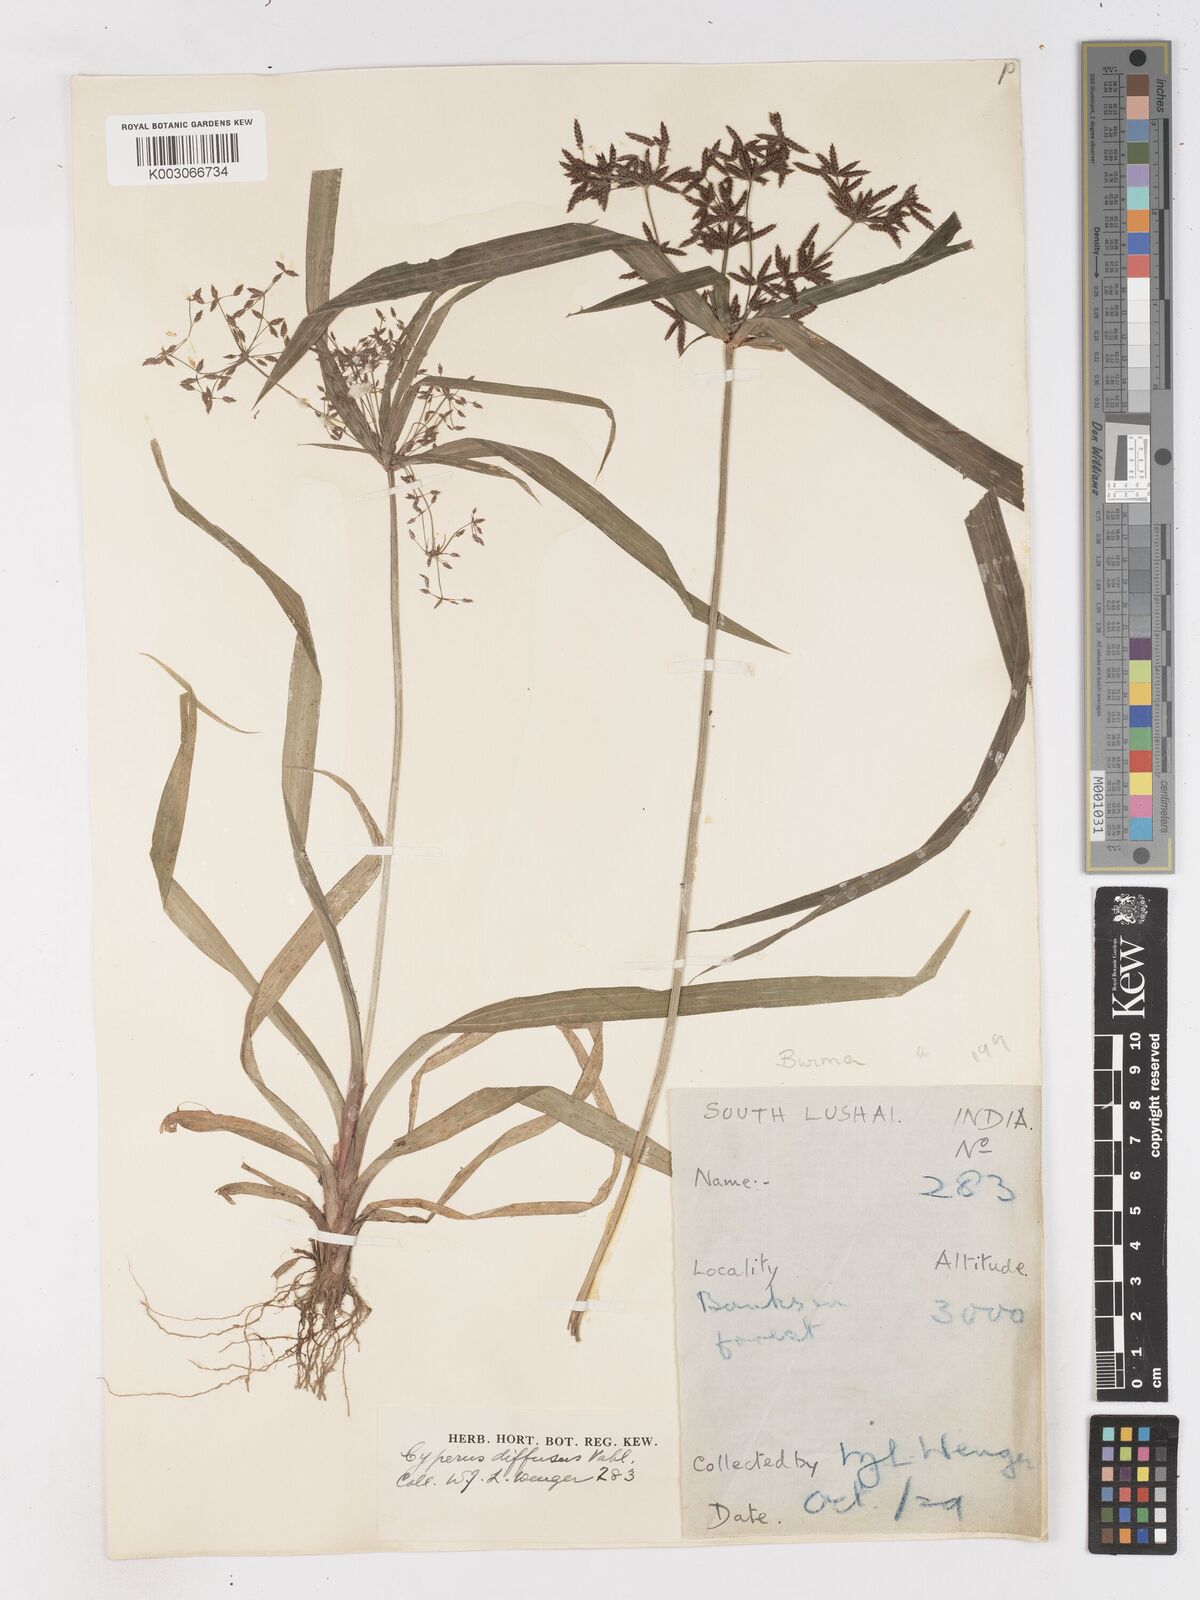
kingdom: Plantae
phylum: Tracheophyta
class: Liliopsida
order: Poales
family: Cyperaceae
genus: Cyperus
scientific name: Cyperus diffusus
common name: Dwarf umbrella grass
